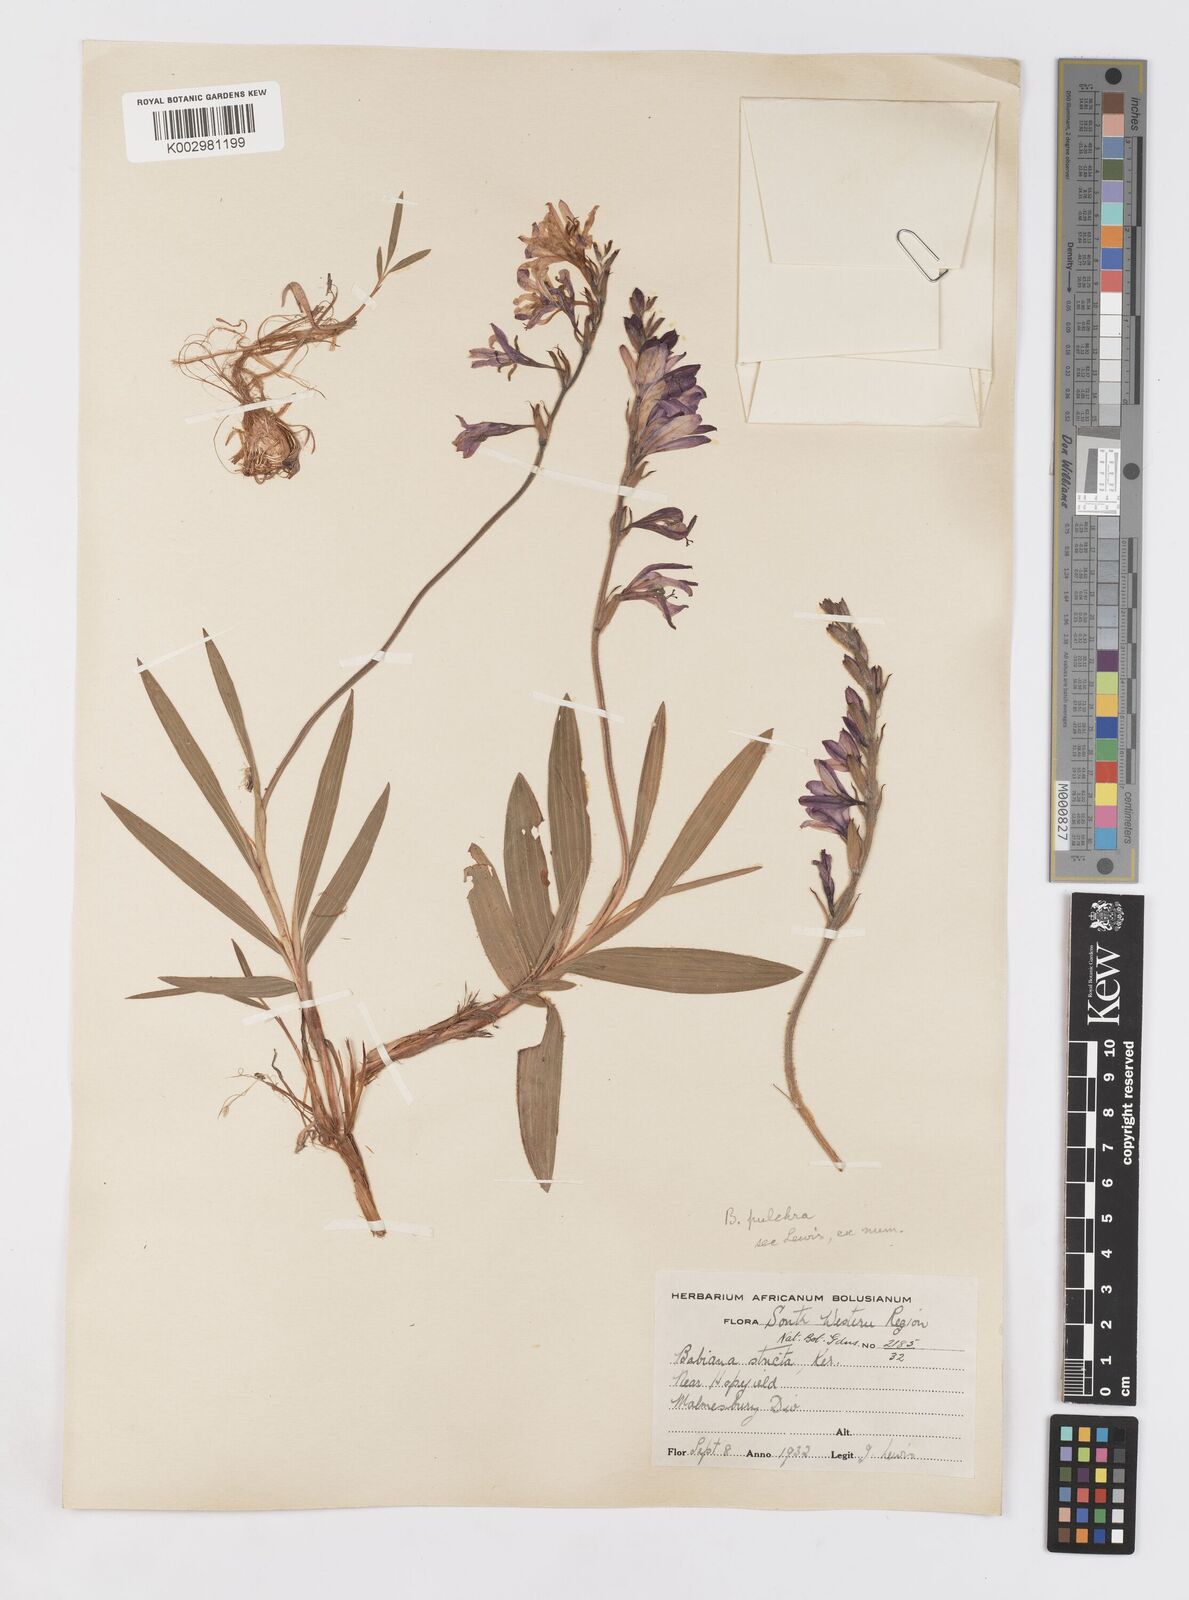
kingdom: Plantae
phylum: Tracheophyta
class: Liliopsida
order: Asparagales
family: Iridaceae
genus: Babiana
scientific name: Babiana angustifolia
